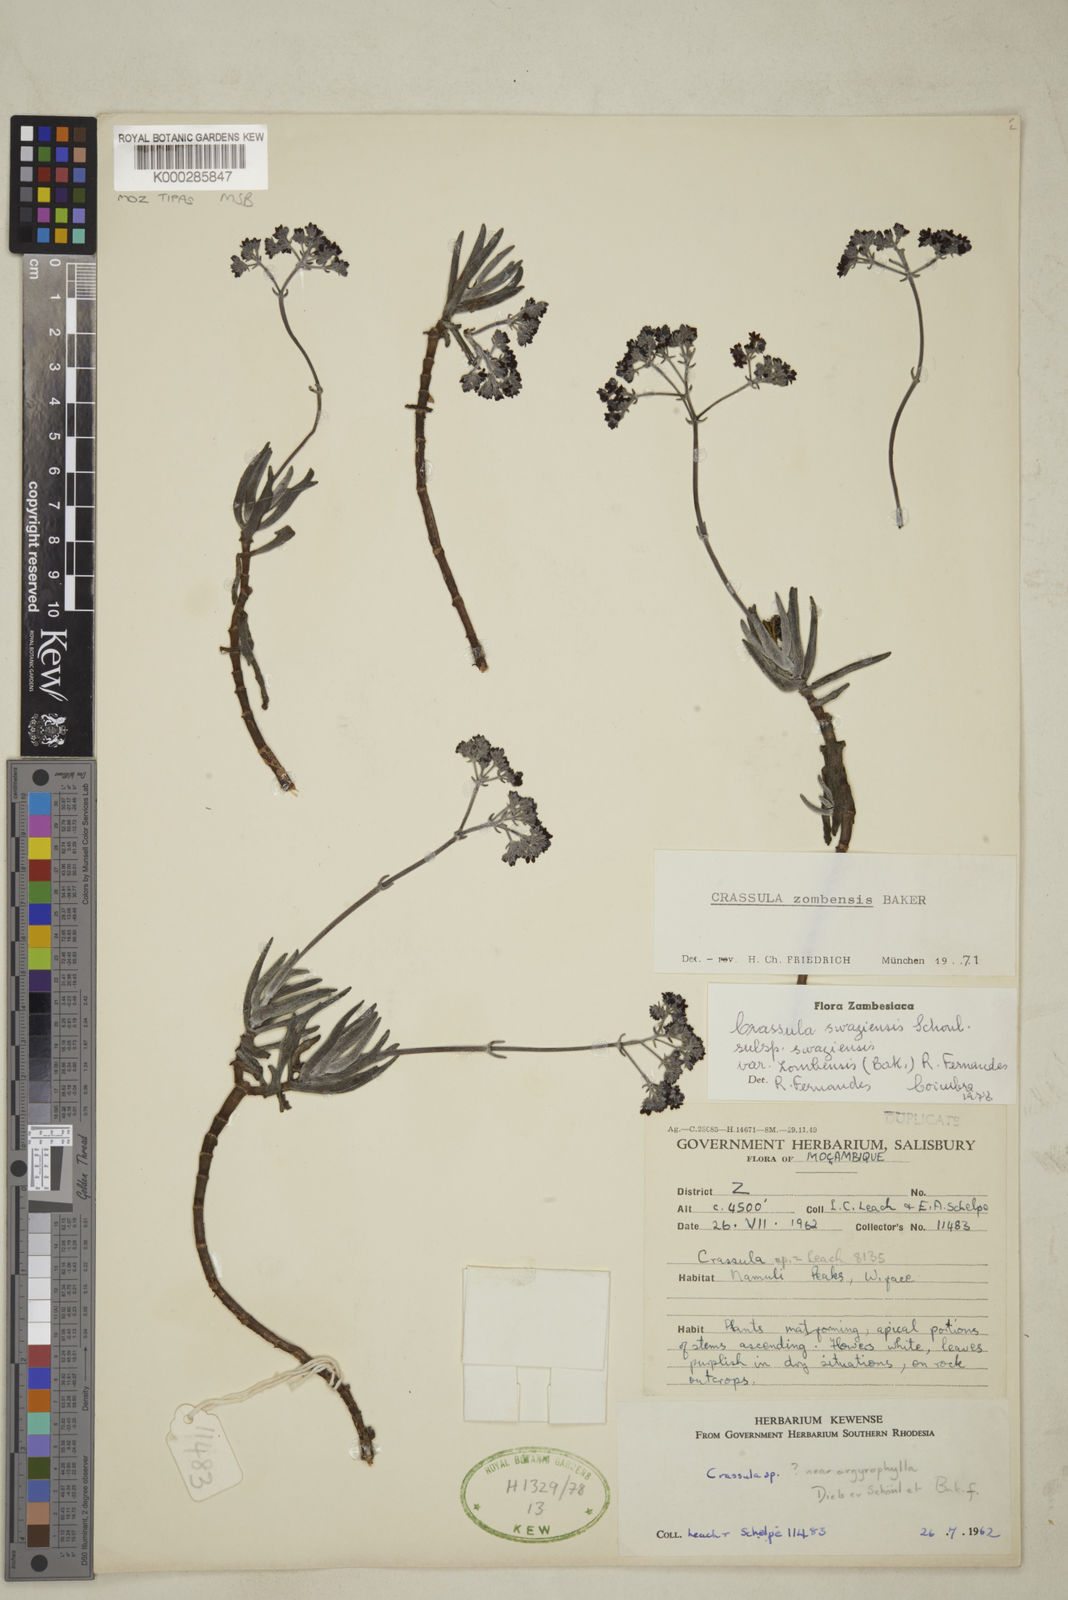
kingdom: Plantae
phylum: Tracheophyta
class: Magnoliopsida
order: Saxifragales
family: Crassulaceae
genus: Crassula
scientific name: Crassula zombensis
